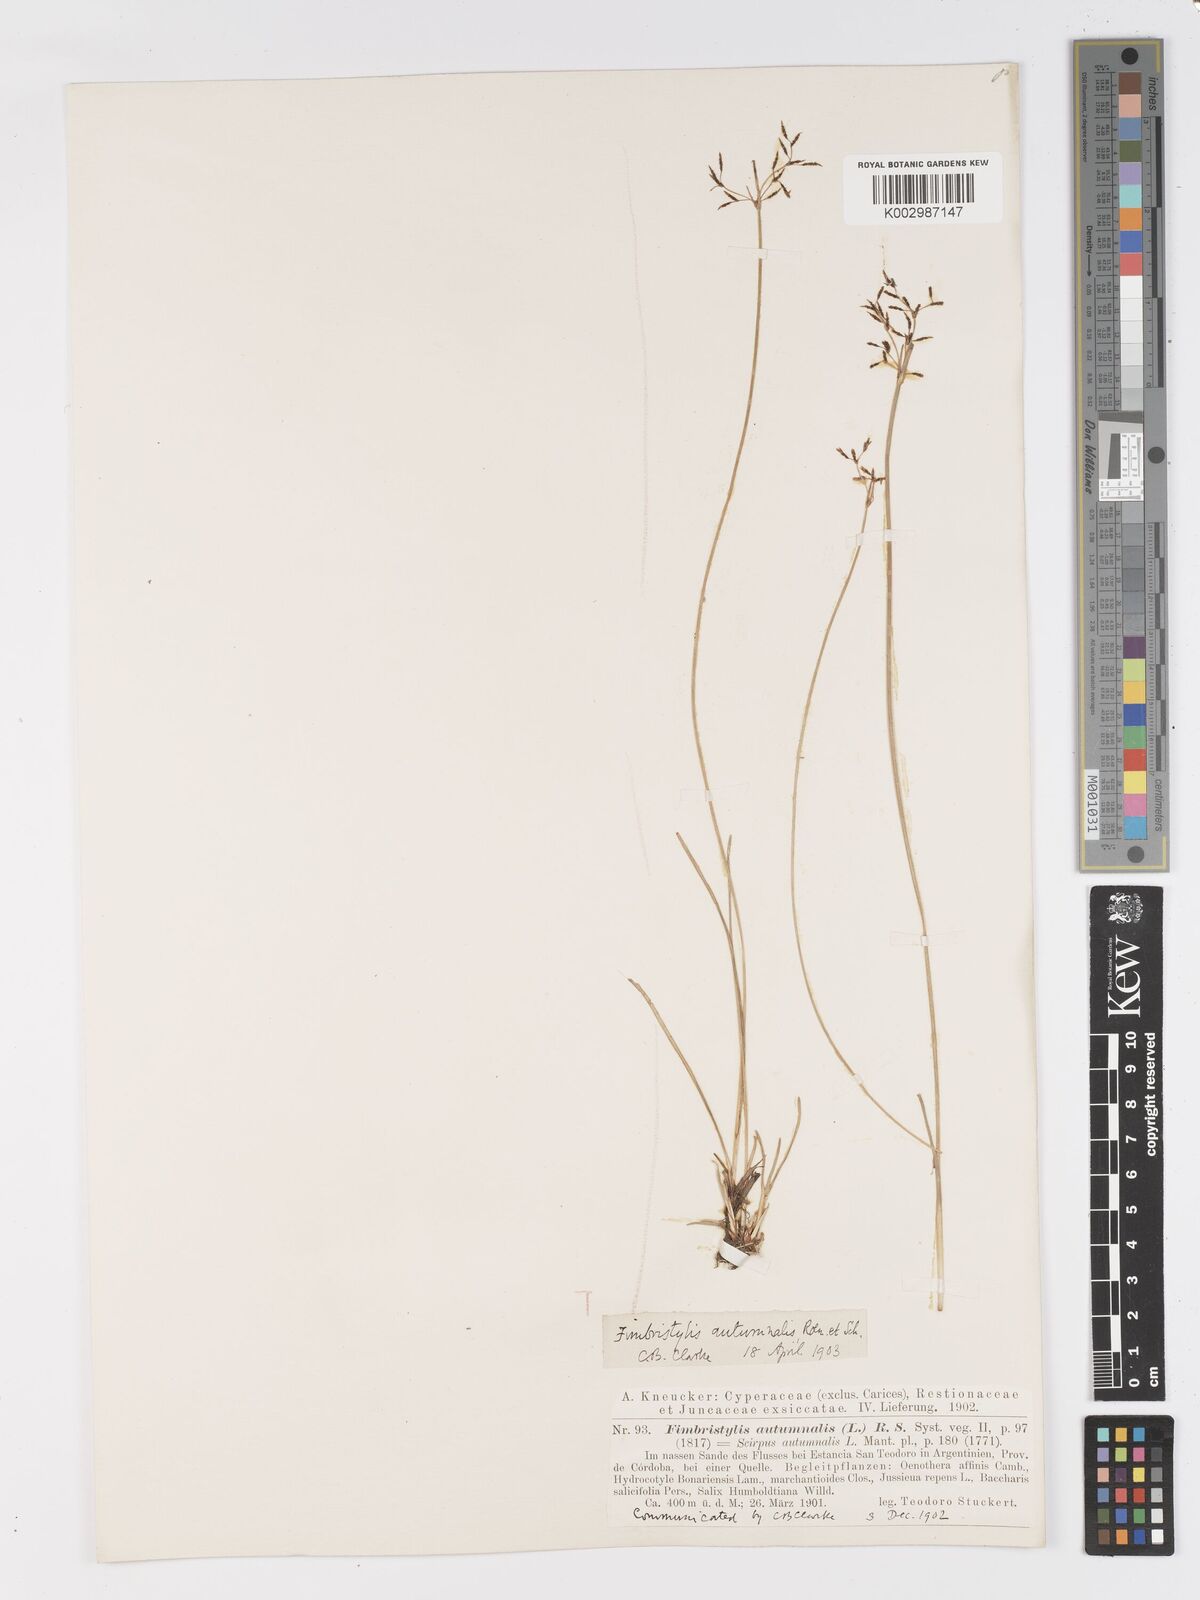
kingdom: Plantae
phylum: Tracheophyta
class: Liliopsida
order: Poales
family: Cyperaceae
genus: Fimbristylis
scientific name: Fimbristylis autumnalis
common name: Slender fimbristylis
